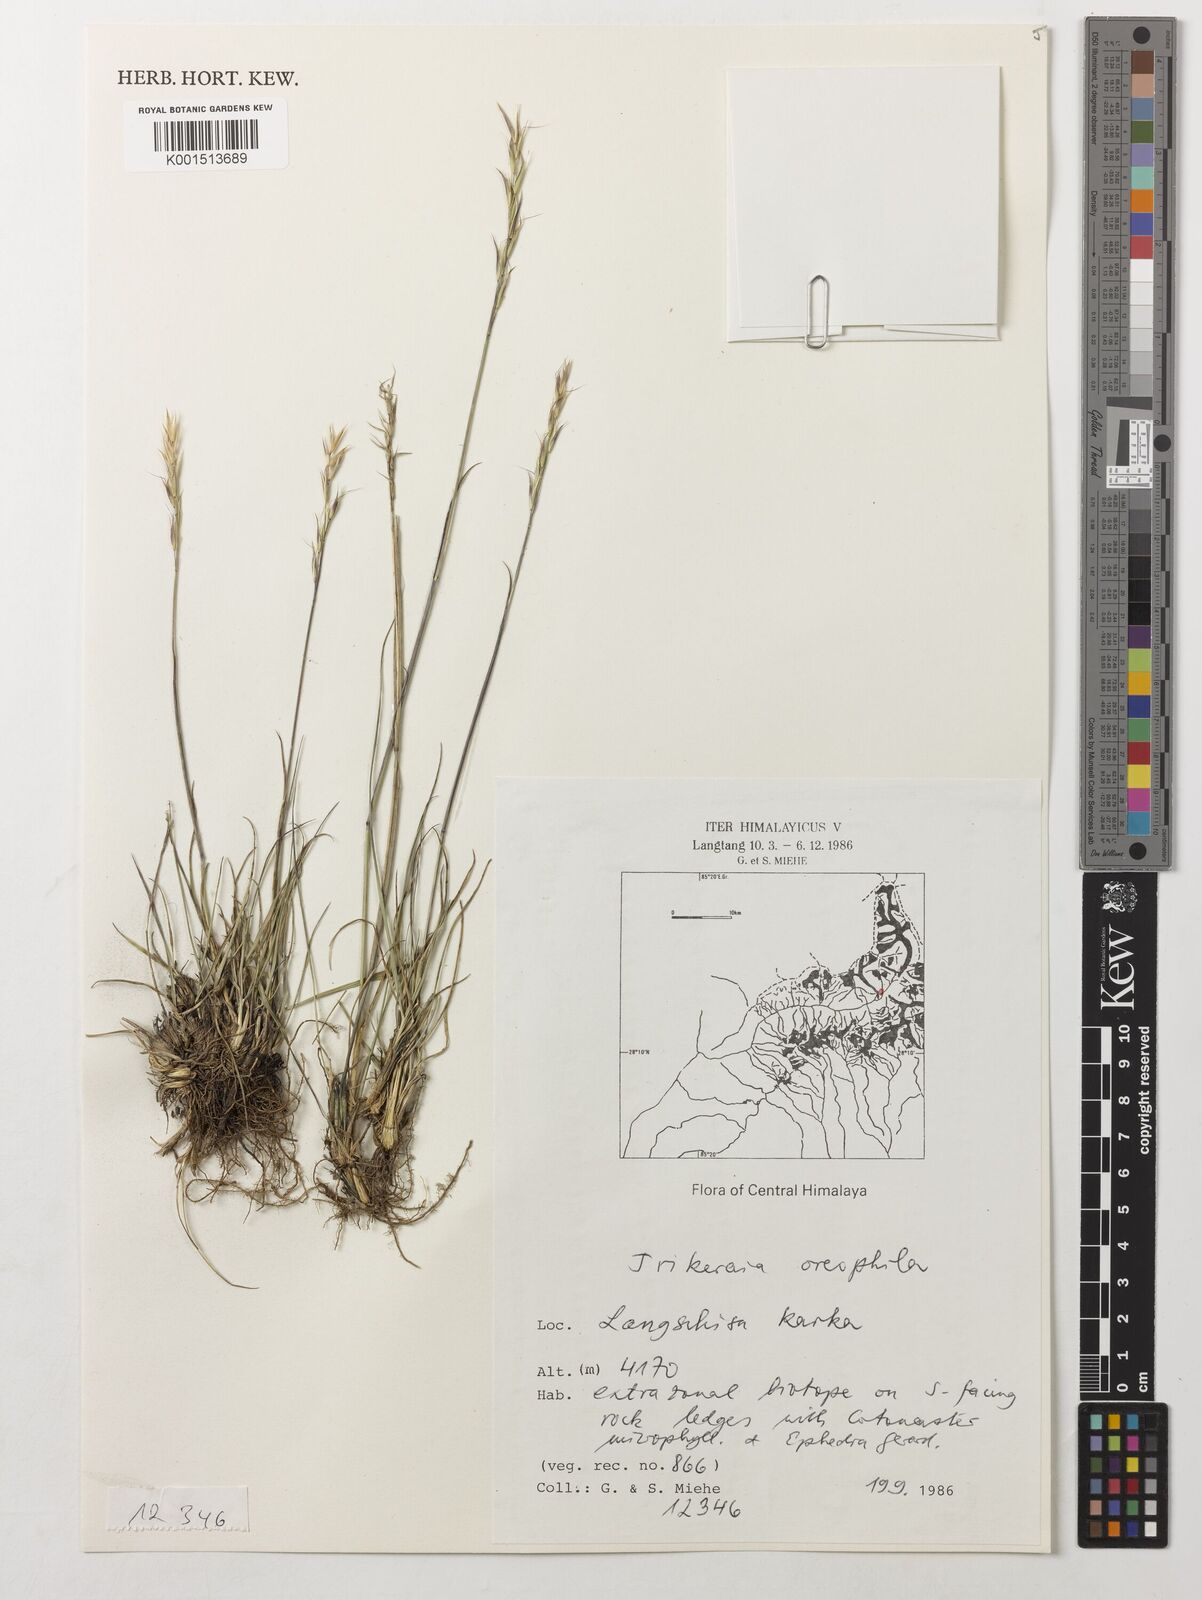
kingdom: Plantae
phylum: Tracheophyta
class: Liliopsida
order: Poales
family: Poaceae
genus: Sinochasea
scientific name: Sinochasea trigyna
